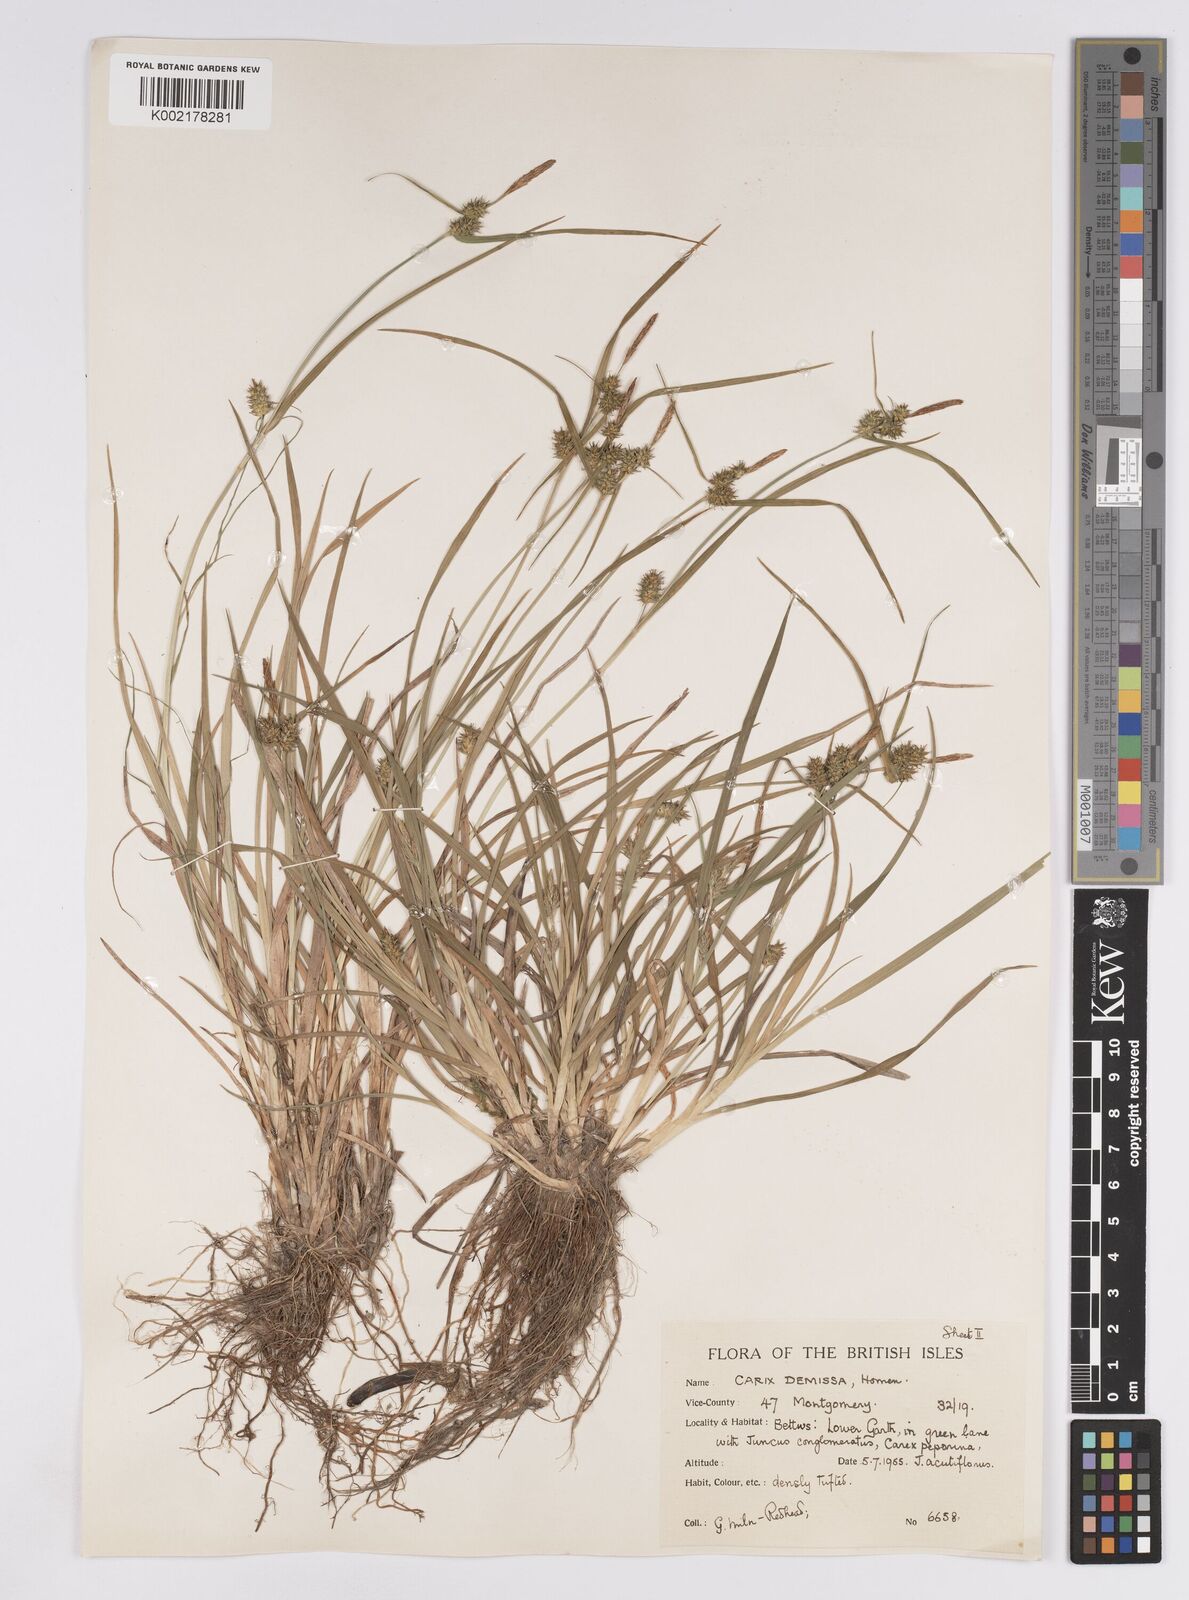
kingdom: Plantae
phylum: Tracheophyta
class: Liliopsida
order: Poales
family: Cyperaceae
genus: Carex
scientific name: Carex demissa
